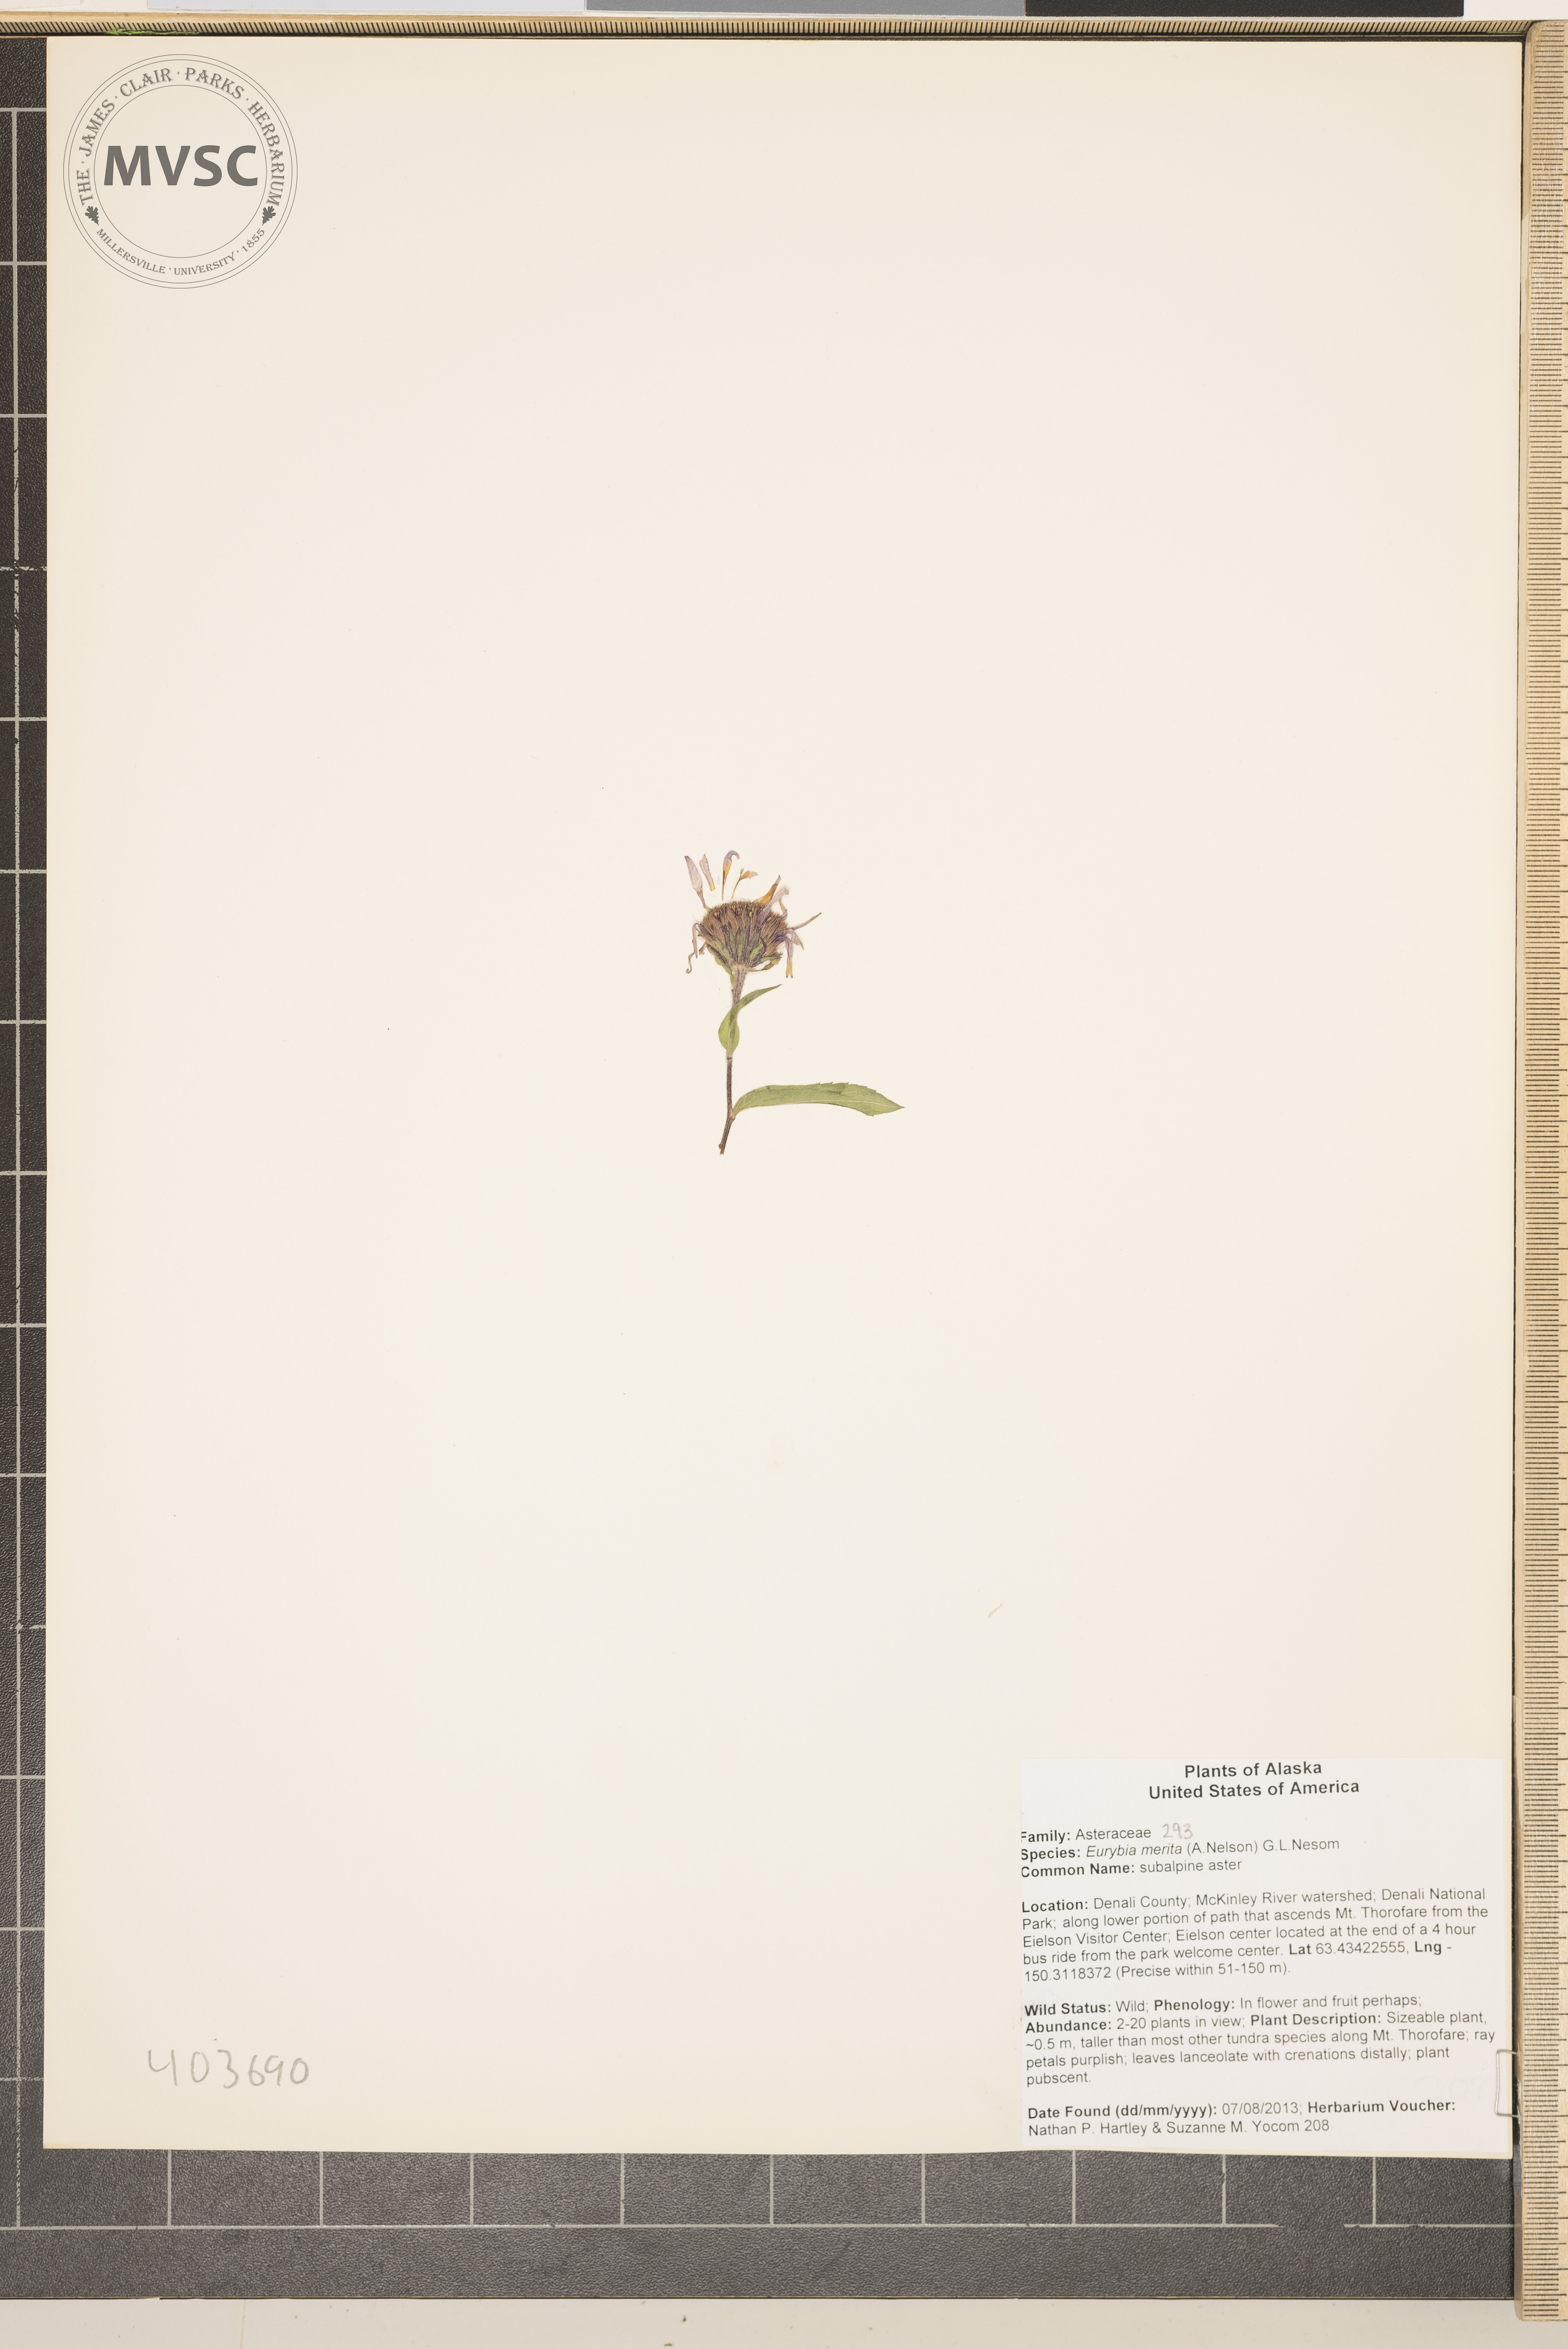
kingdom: Plantae
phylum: Tracheophyta
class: Magnoliopsida
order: Asterales
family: Asteraceae
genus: Eurybia
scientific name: Eurybia merita
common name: subalpine aster
